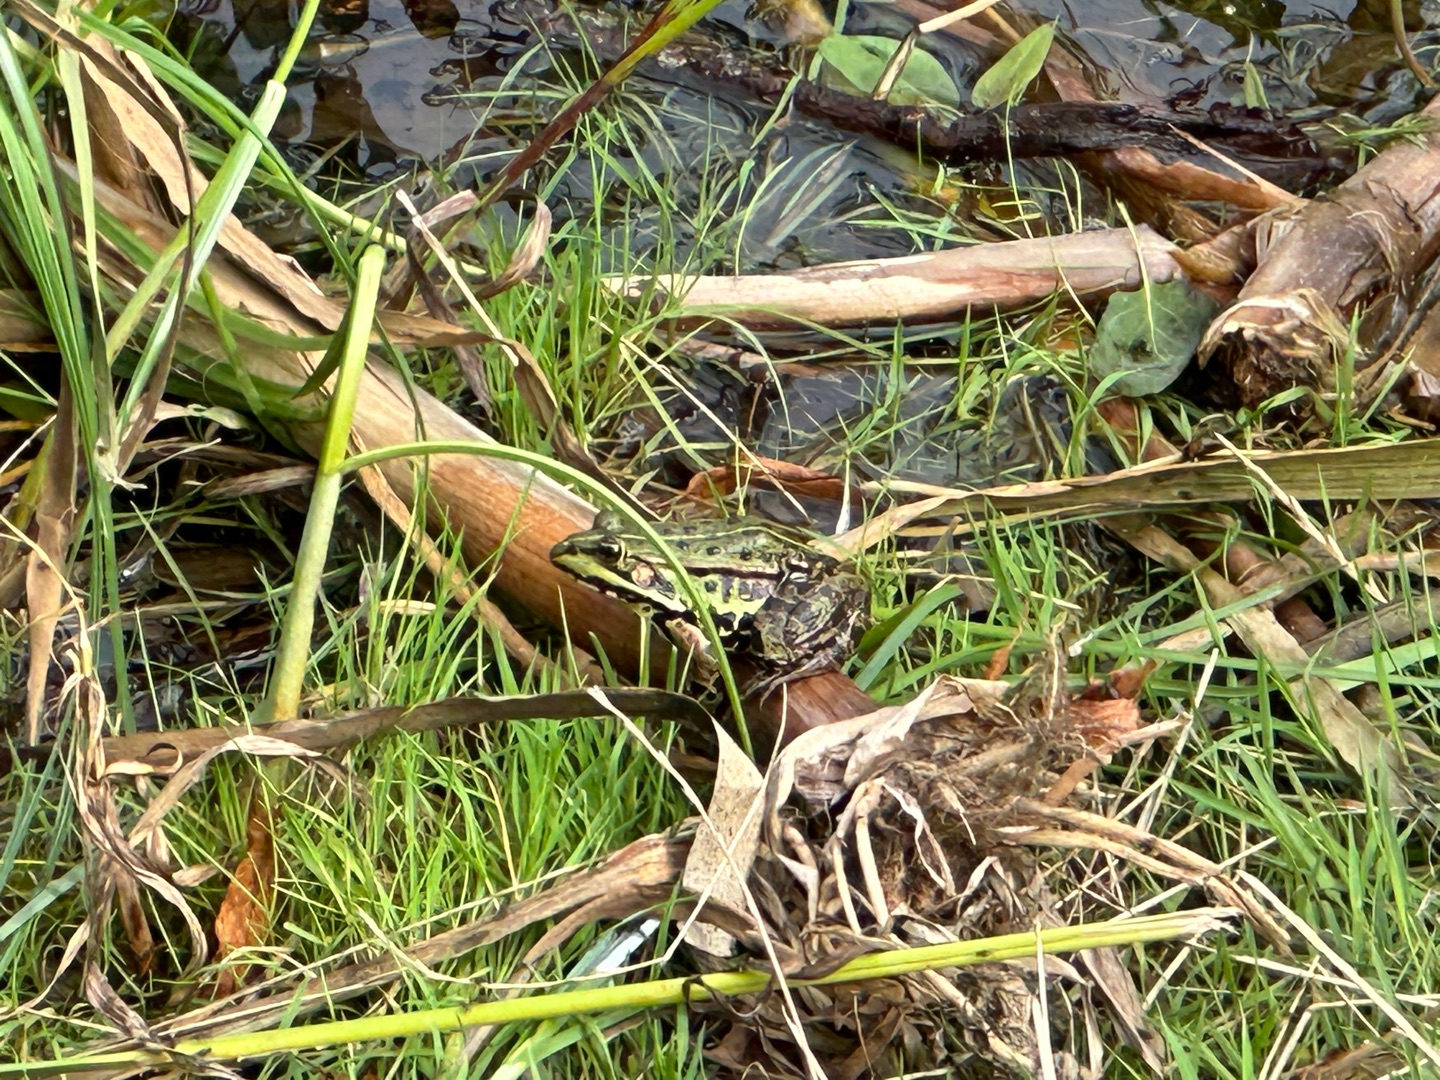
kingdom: Animalia
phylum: Chordata
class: Amphibia
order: Anura
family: Ranidae
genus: Pelophylax
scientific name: Pelophylax lessonae
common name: Grøn frø
